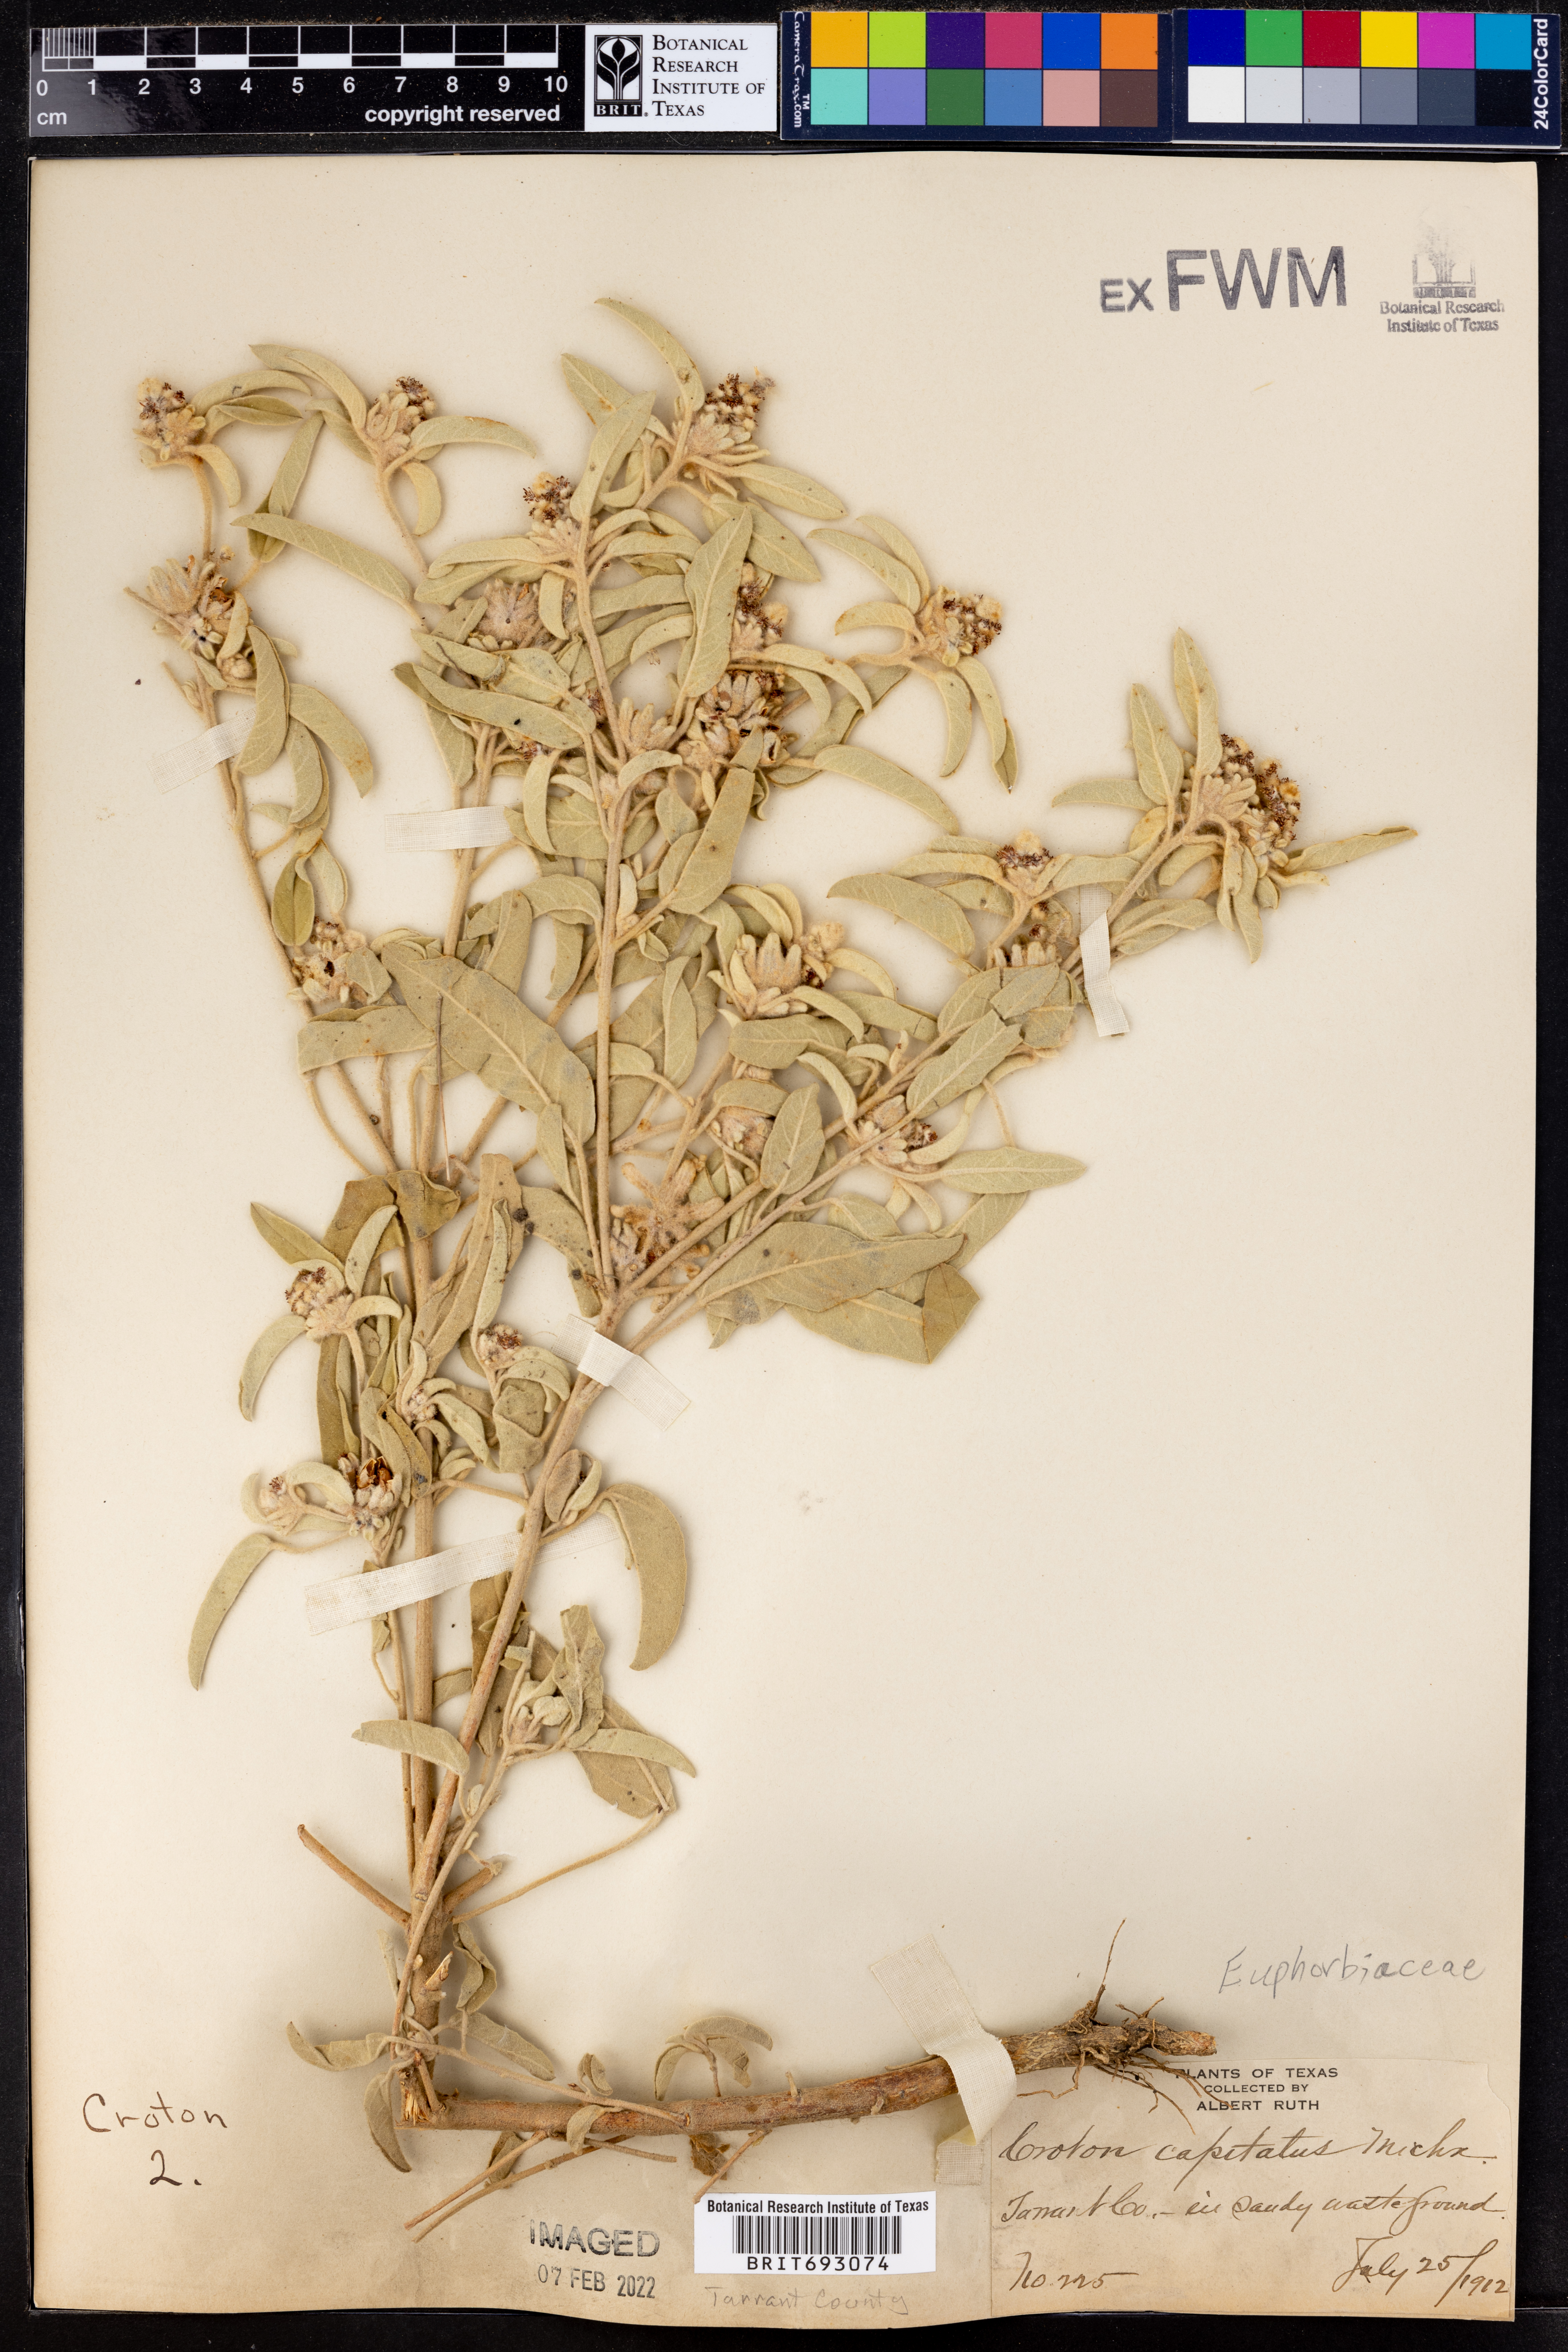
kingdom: Plantae
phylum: Tracheophyta
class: Magnoliopsida
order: Malpighiales
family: Euphorbiaceae
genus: Croton
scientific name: Croton capitatus
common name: Woolly croton
